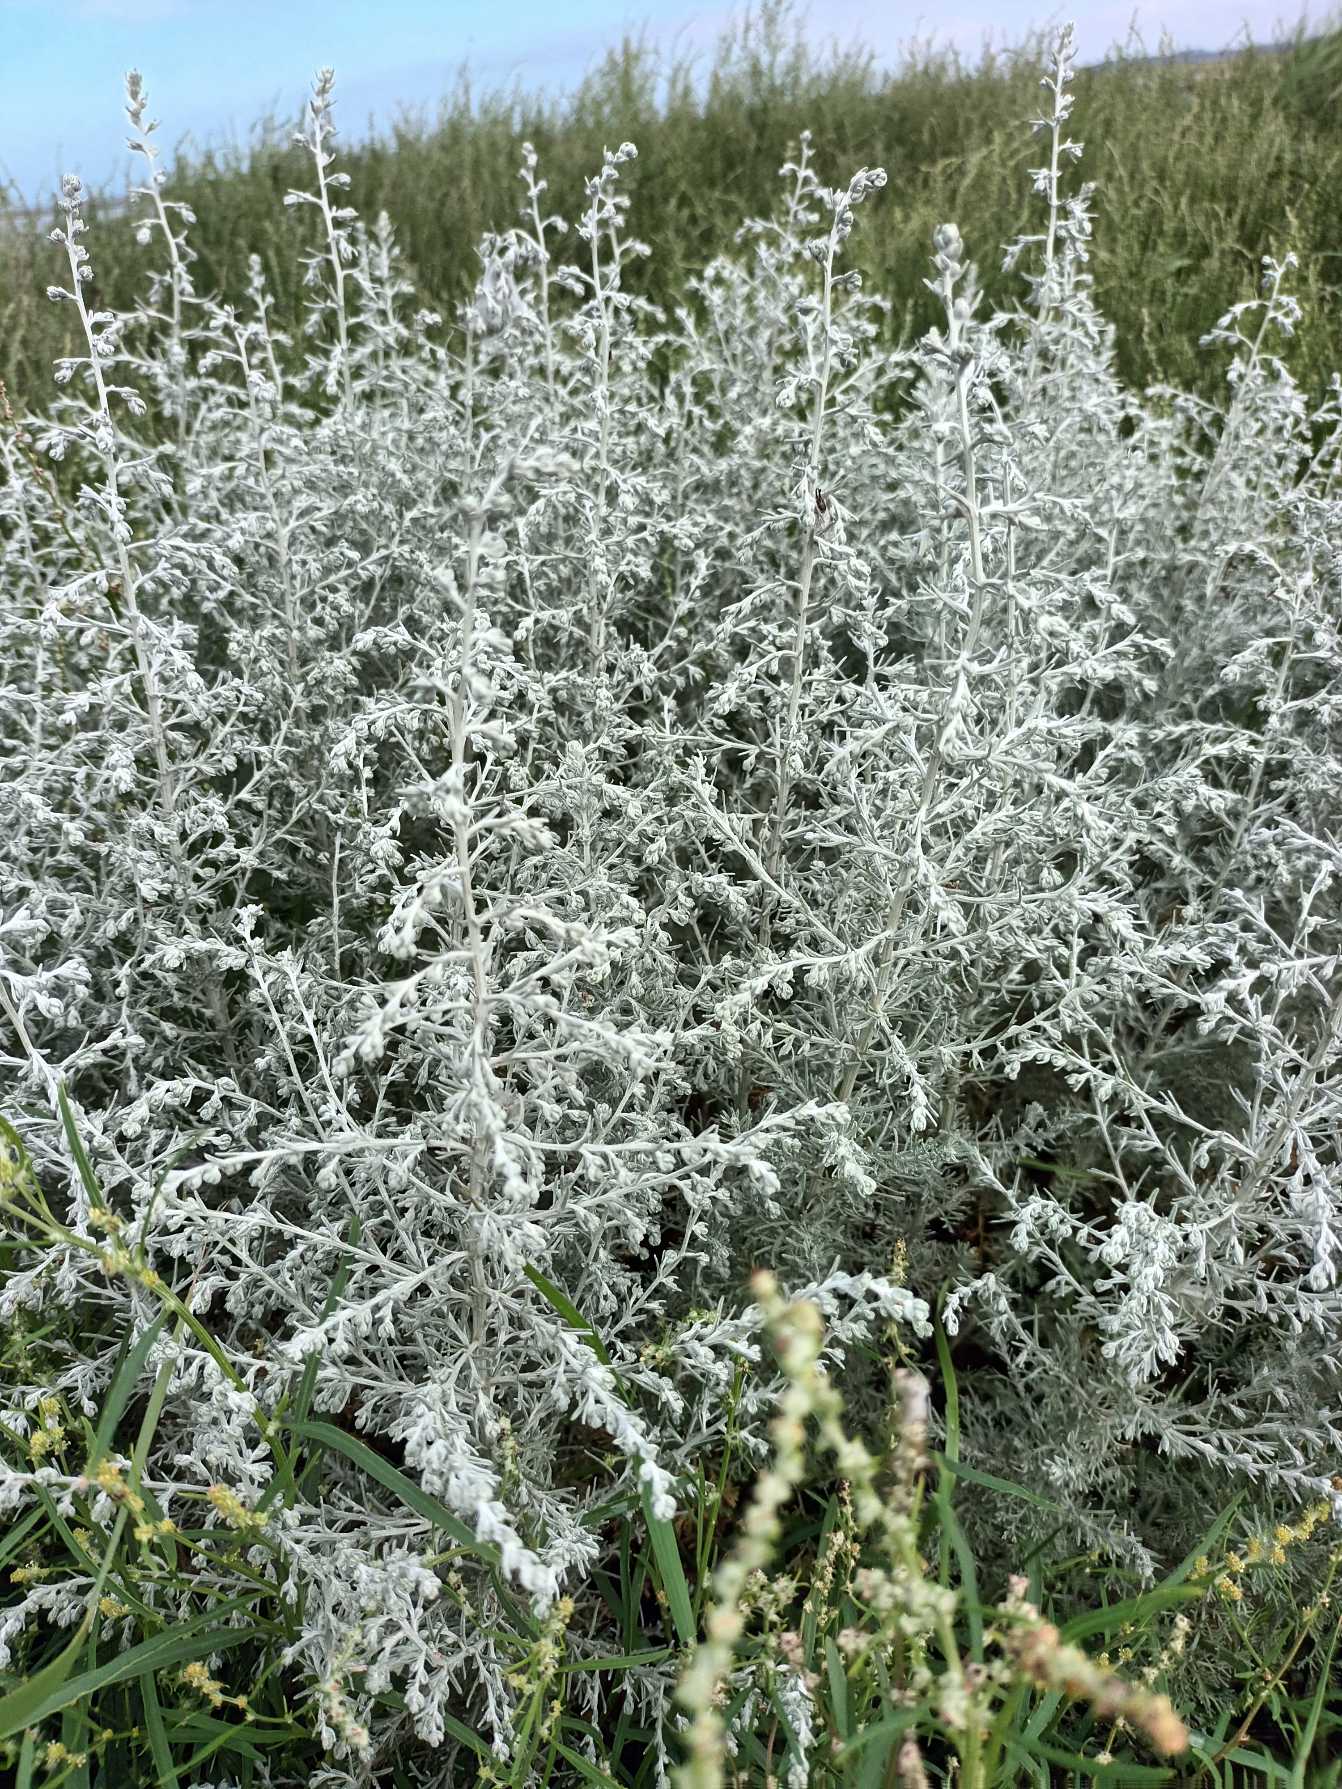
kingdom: Plantae
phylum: Tracheophyta
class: Magnoliopsida
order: Asterales
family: Asteraceae
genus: Artemisia
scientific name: Artemisia maritima
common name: Strandmalurt
